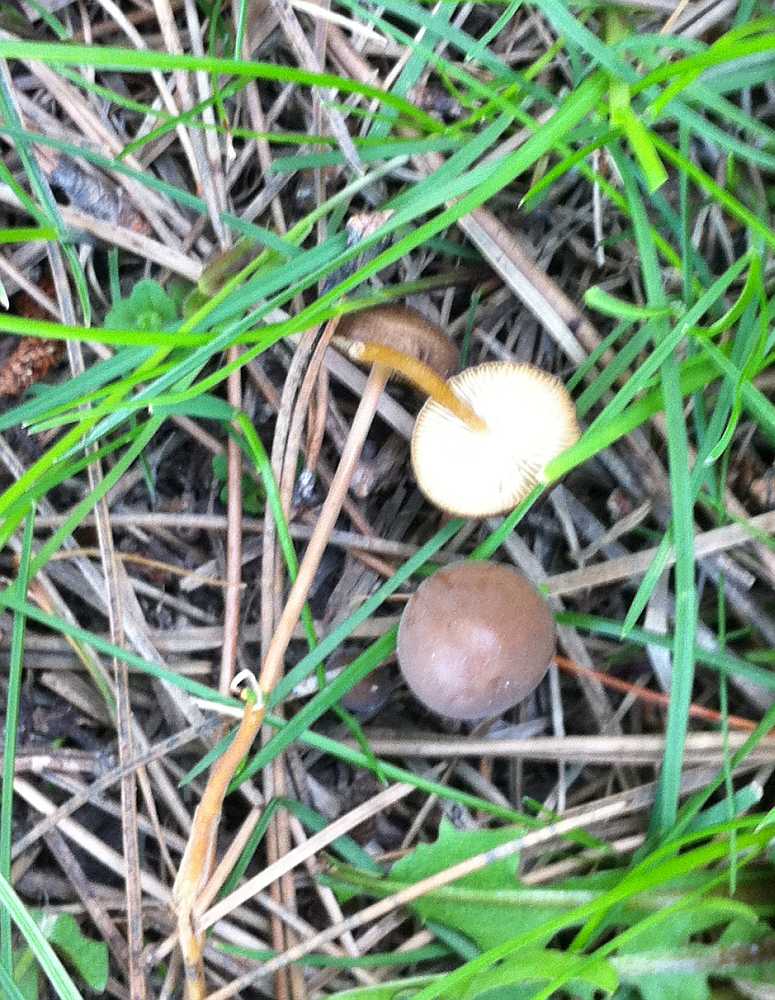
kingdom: Fungi
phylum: Basidiomycota
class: Agaricomycetes
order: Agaricales
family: Physalacriaceae
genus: Strobilurus
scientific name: Strobilurus stephanocystis
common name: fyrre-koglehat
